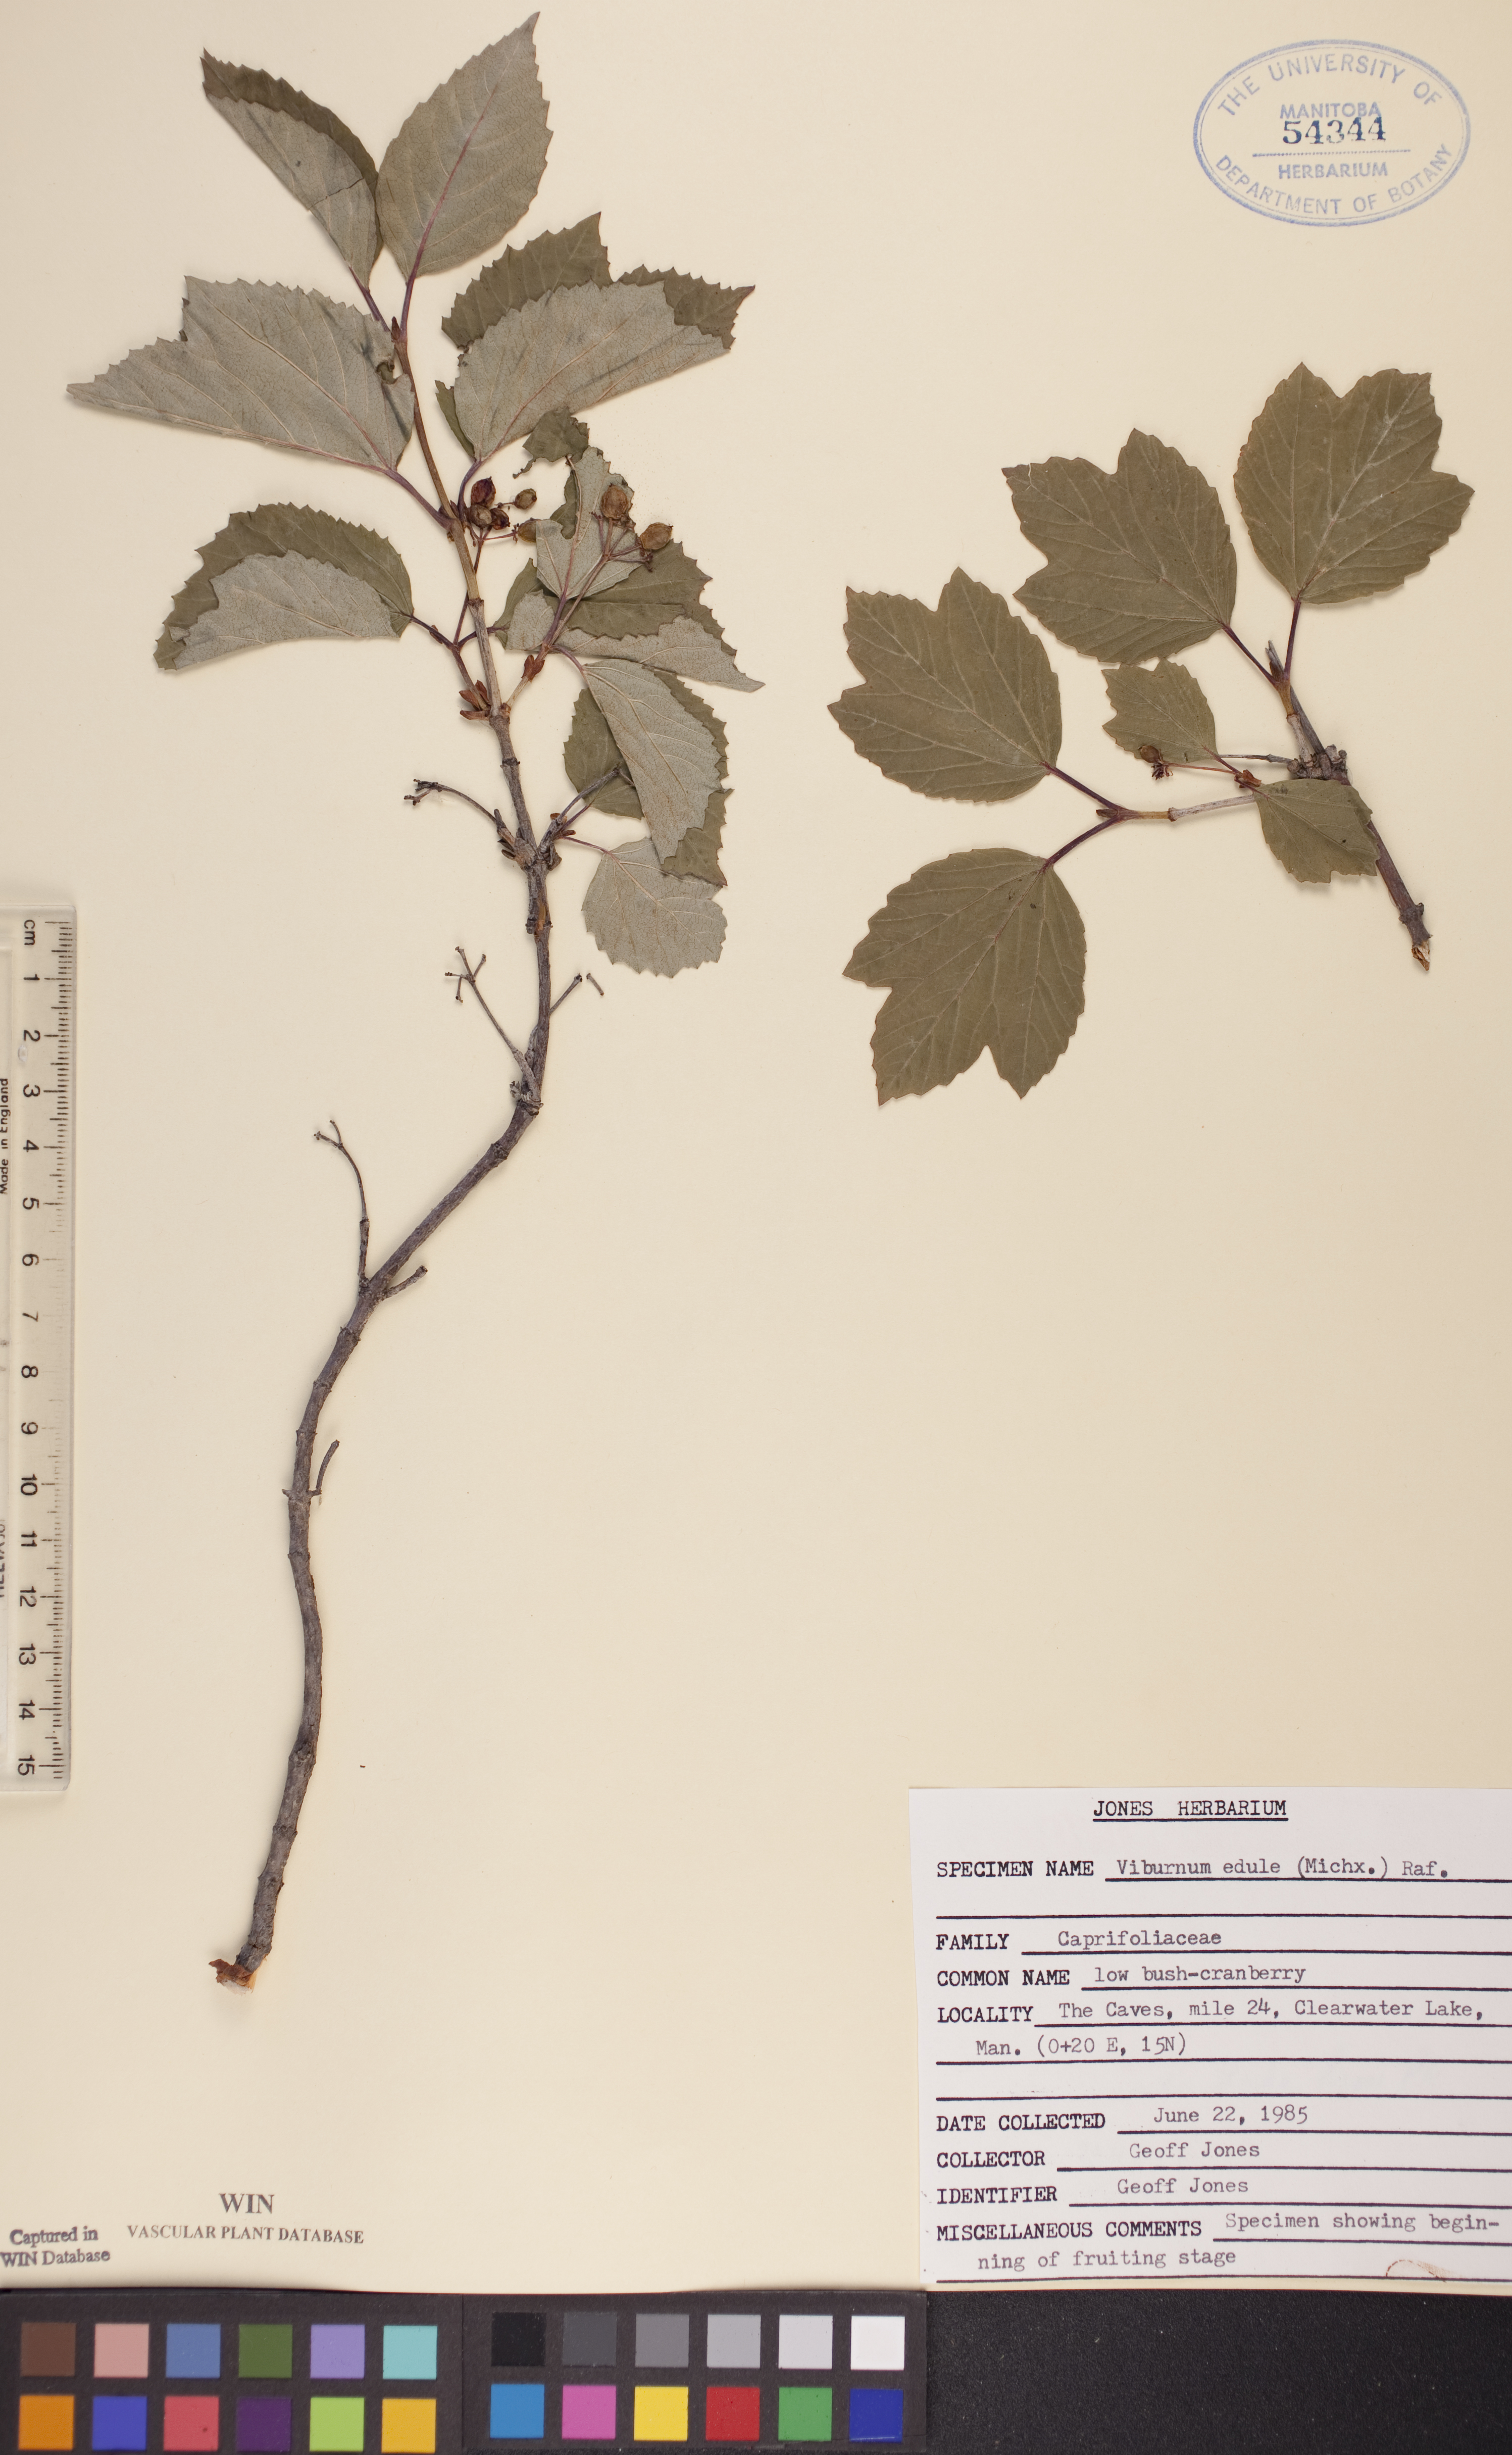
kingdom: Plantae
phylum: Tracheophyta
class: Magnoliopsida
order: Dipsacales
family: Viburnaceae
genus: Viburnum
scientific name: Viburnum edule
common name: Mooseberry
